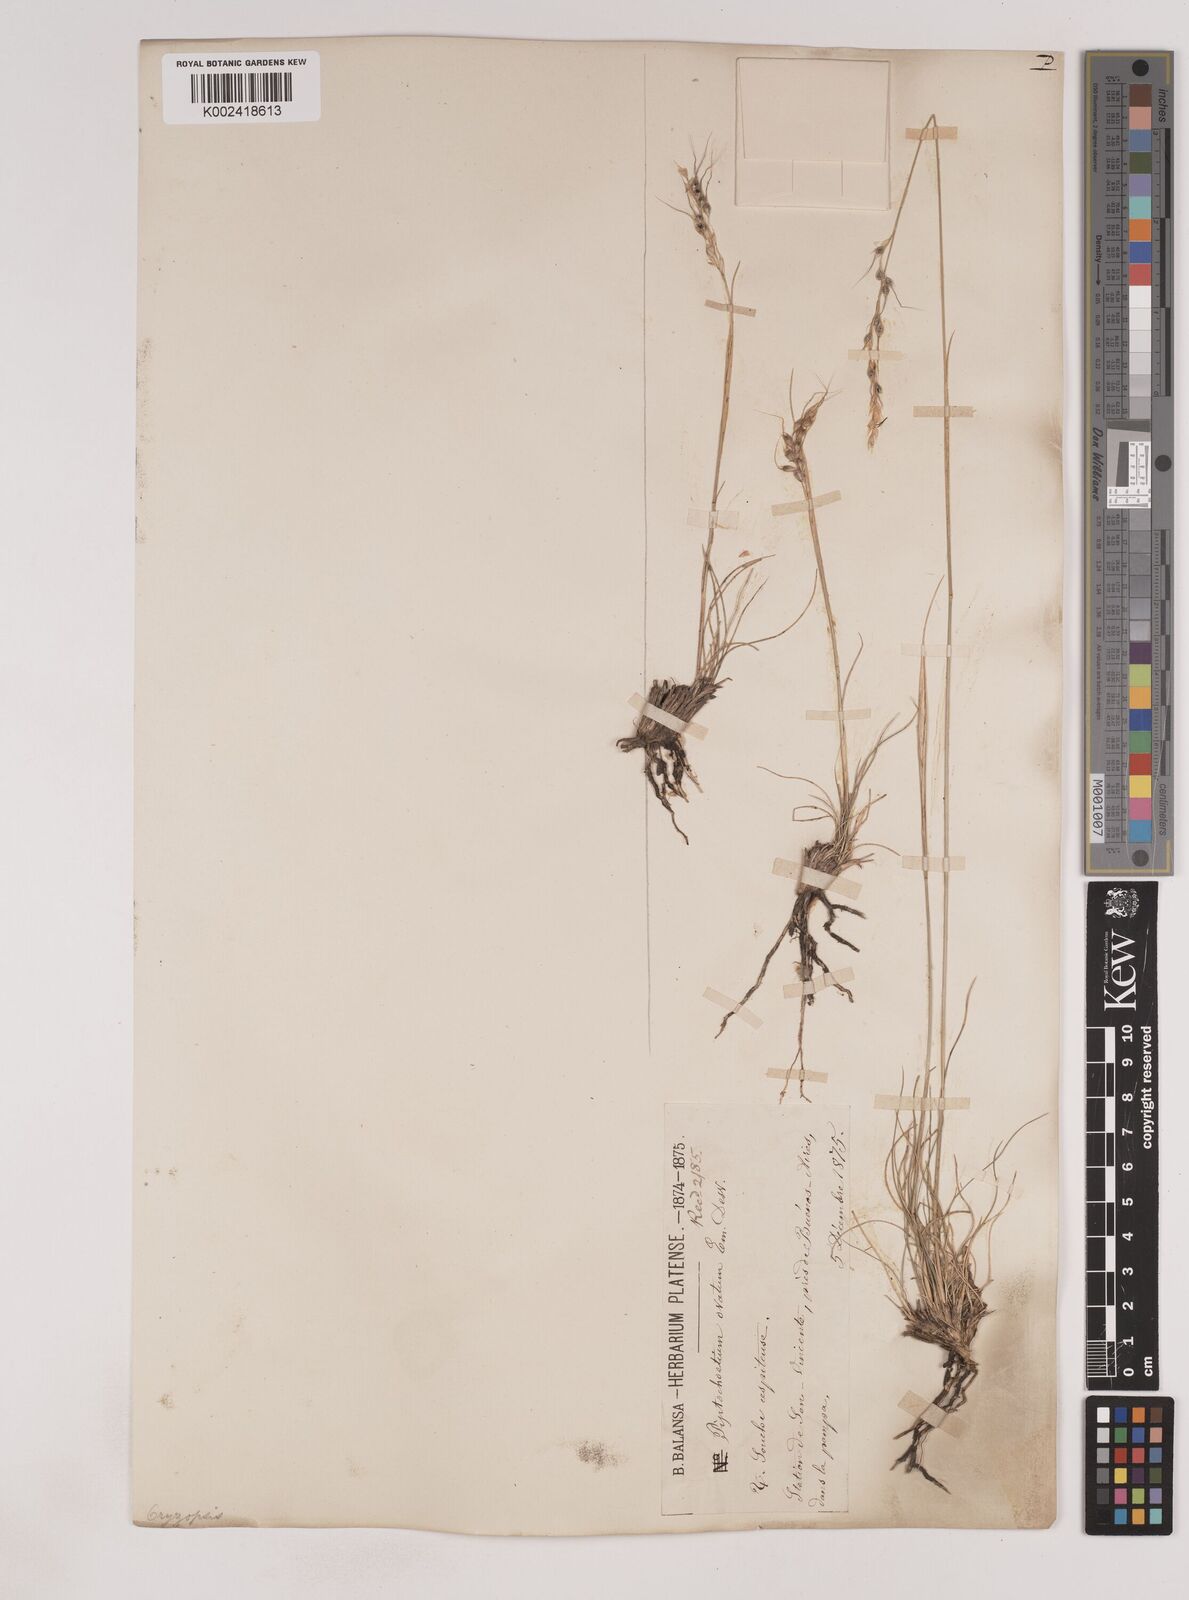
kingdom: Plantae
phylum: Tracheophyta
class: Liliopsida
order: Poales
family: Poaceae
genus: Piptochaetium
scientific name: Piptochaetium
